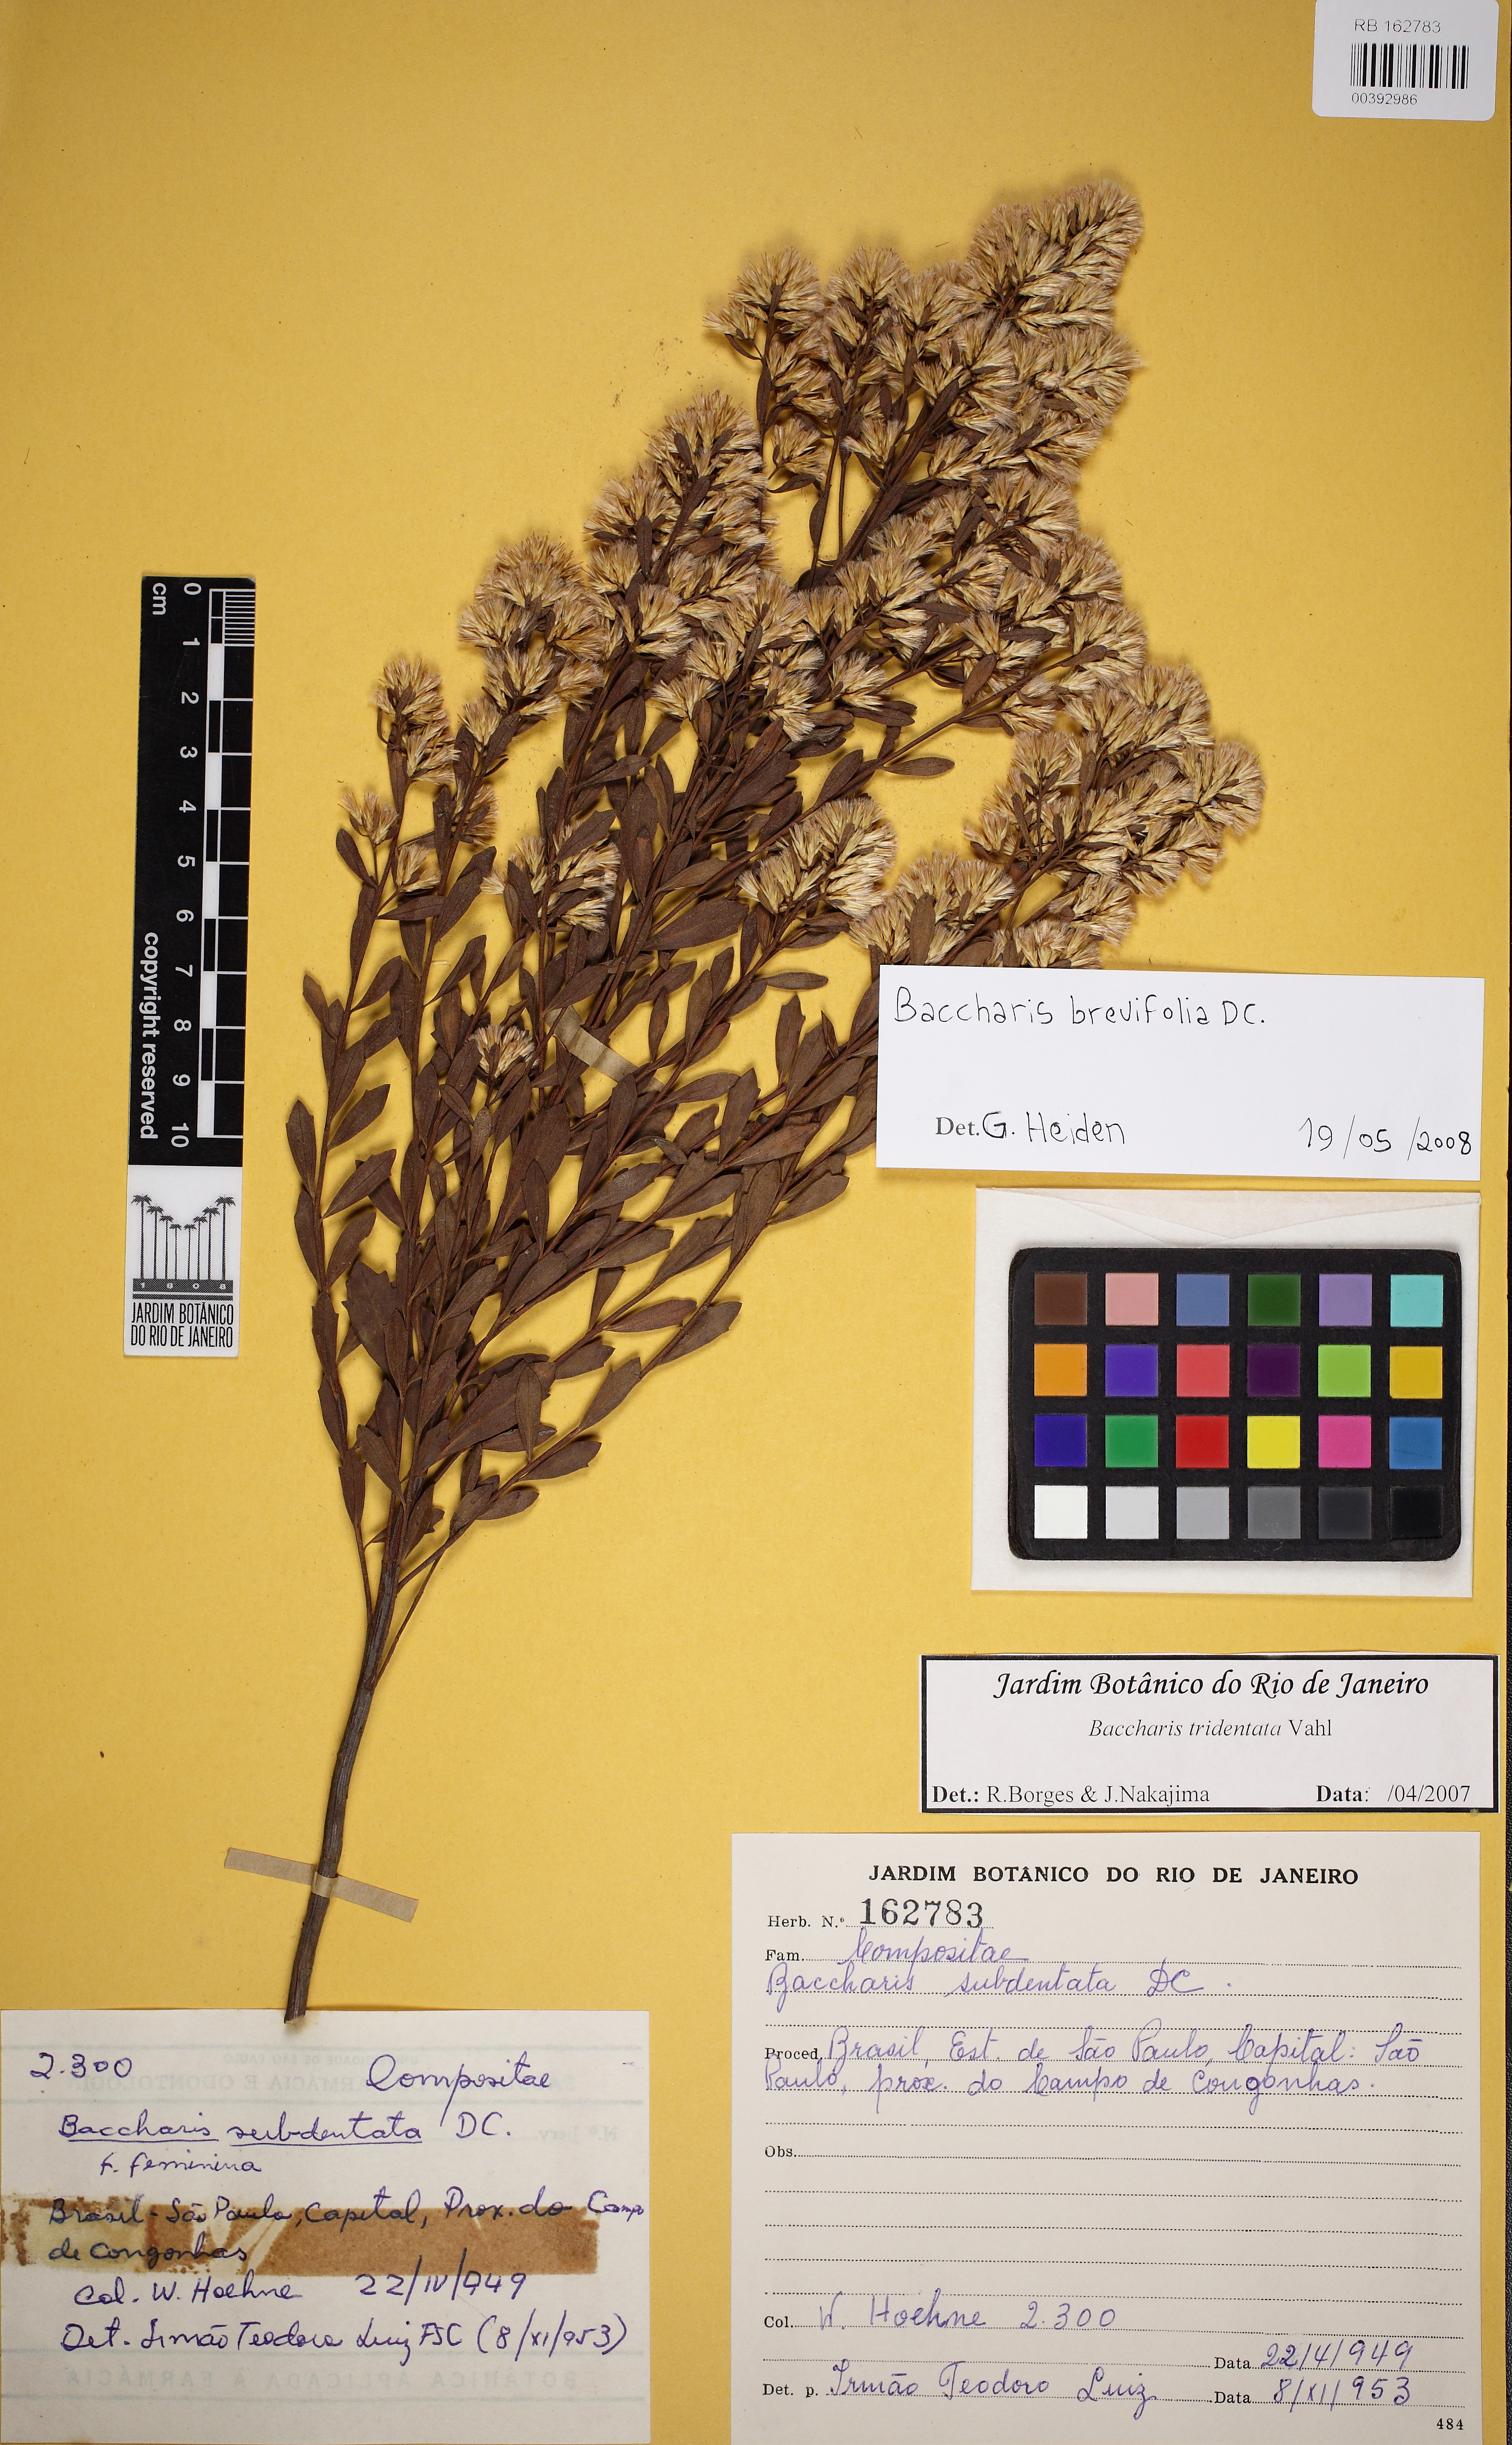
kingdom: Plantae
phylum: Tracheophyta
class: Magnoliopsida
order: Asterales
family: Asteraceae
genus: Baccharis
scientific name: Baccharis brevifolia
